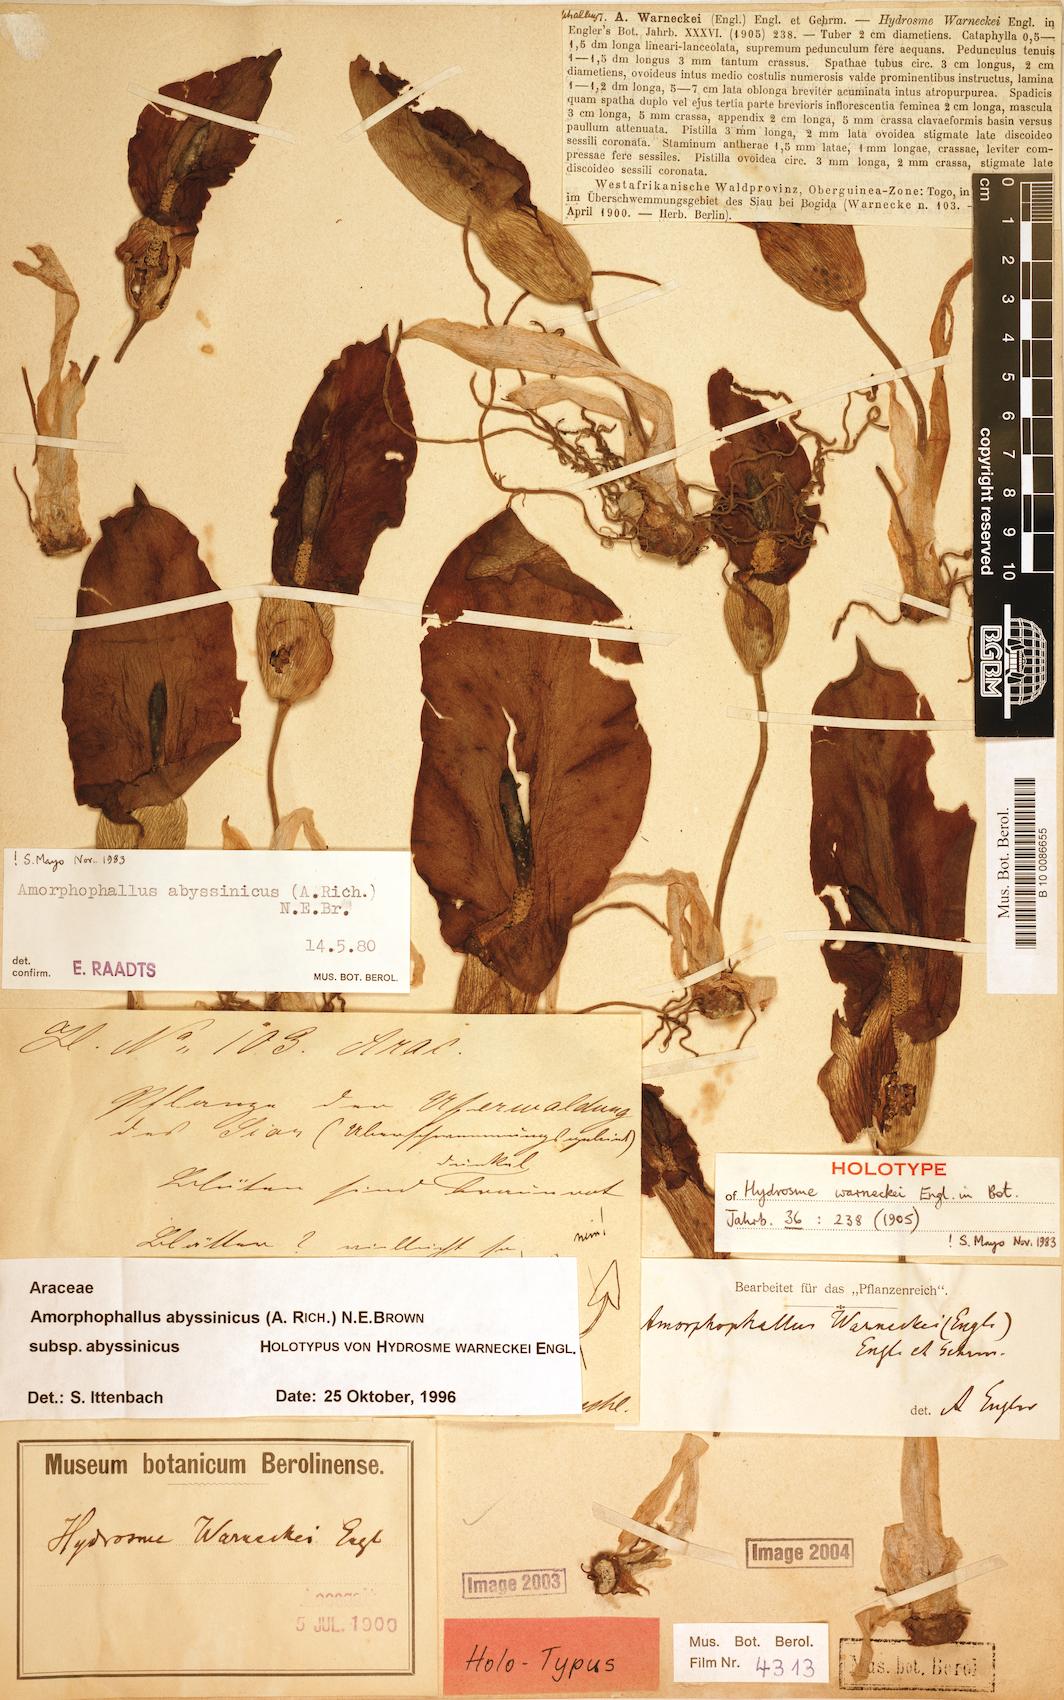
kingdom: Plantae
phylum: Tracheophyta
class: Liliopsida
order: Alismatales
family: Araceae
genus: Amorphophallus
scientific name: Amorphophallus abyssinicus
